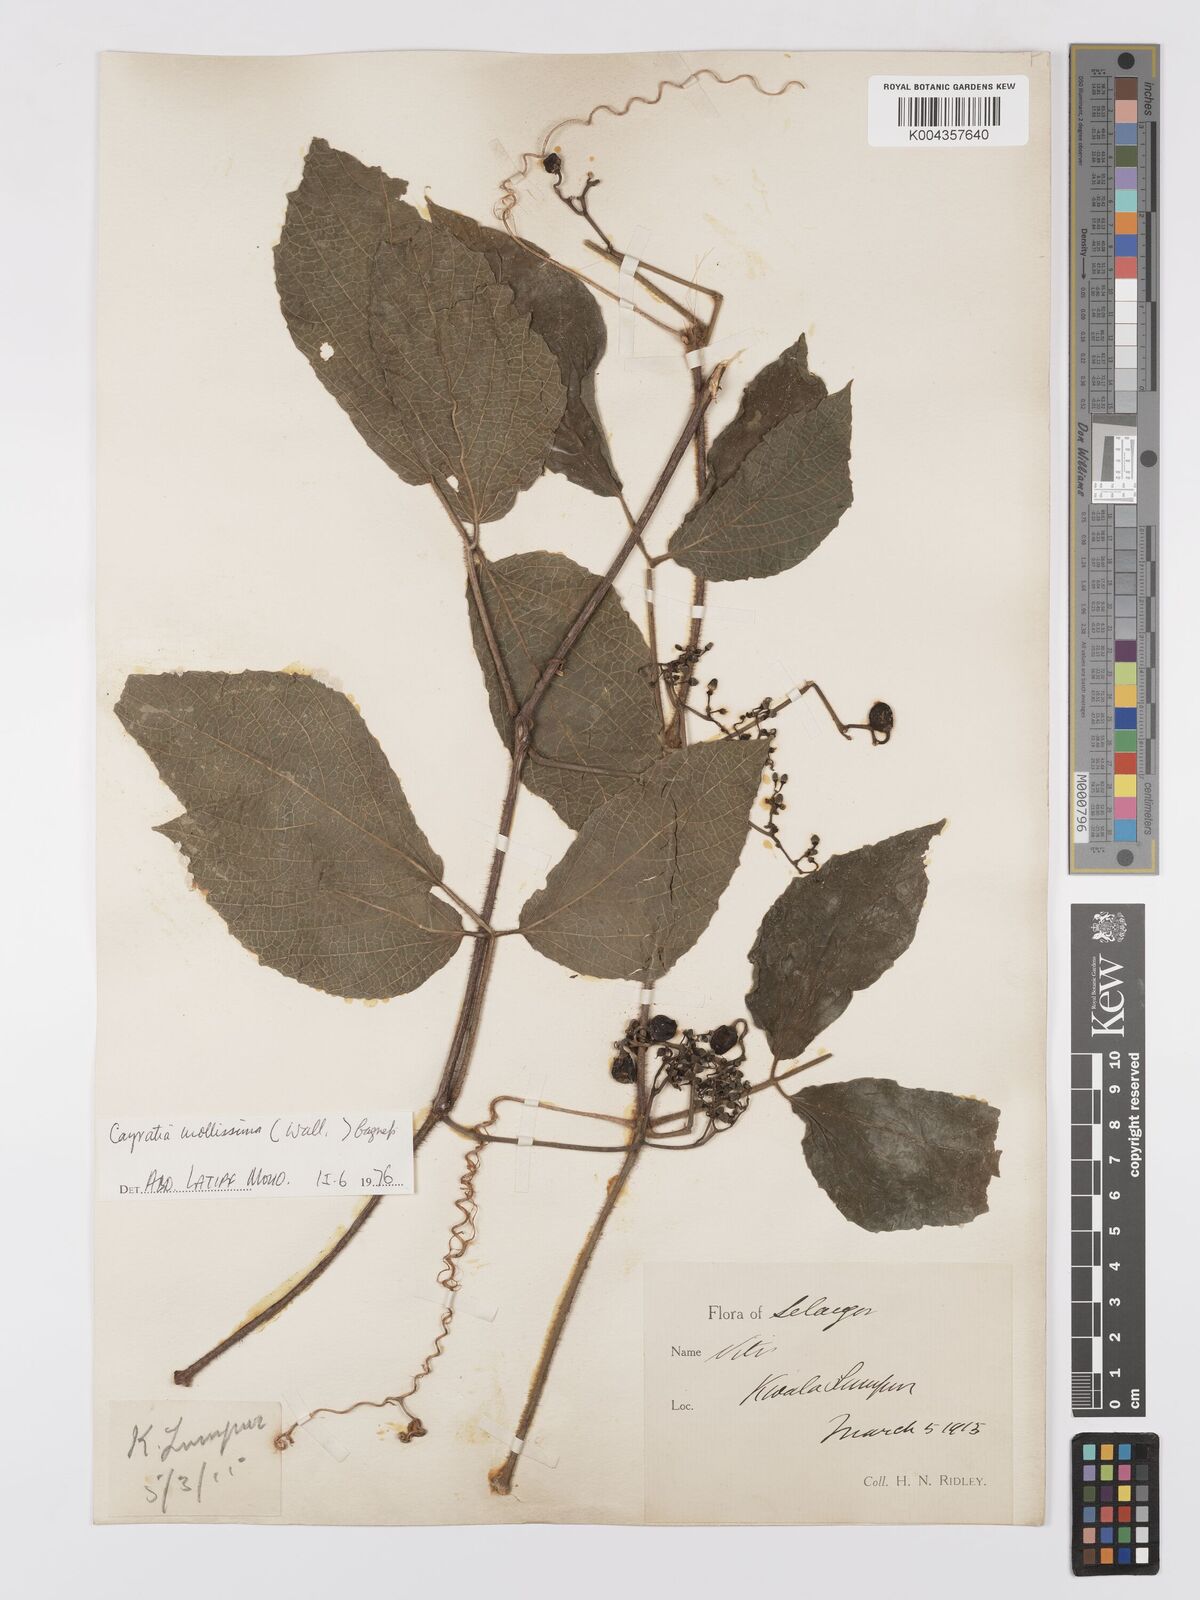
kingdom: Plantae
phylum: Tracheophyta
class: Magnoliopsida
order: Vitales
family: Vitaceae
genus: Cayratia
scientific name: Cayratia mollissima
